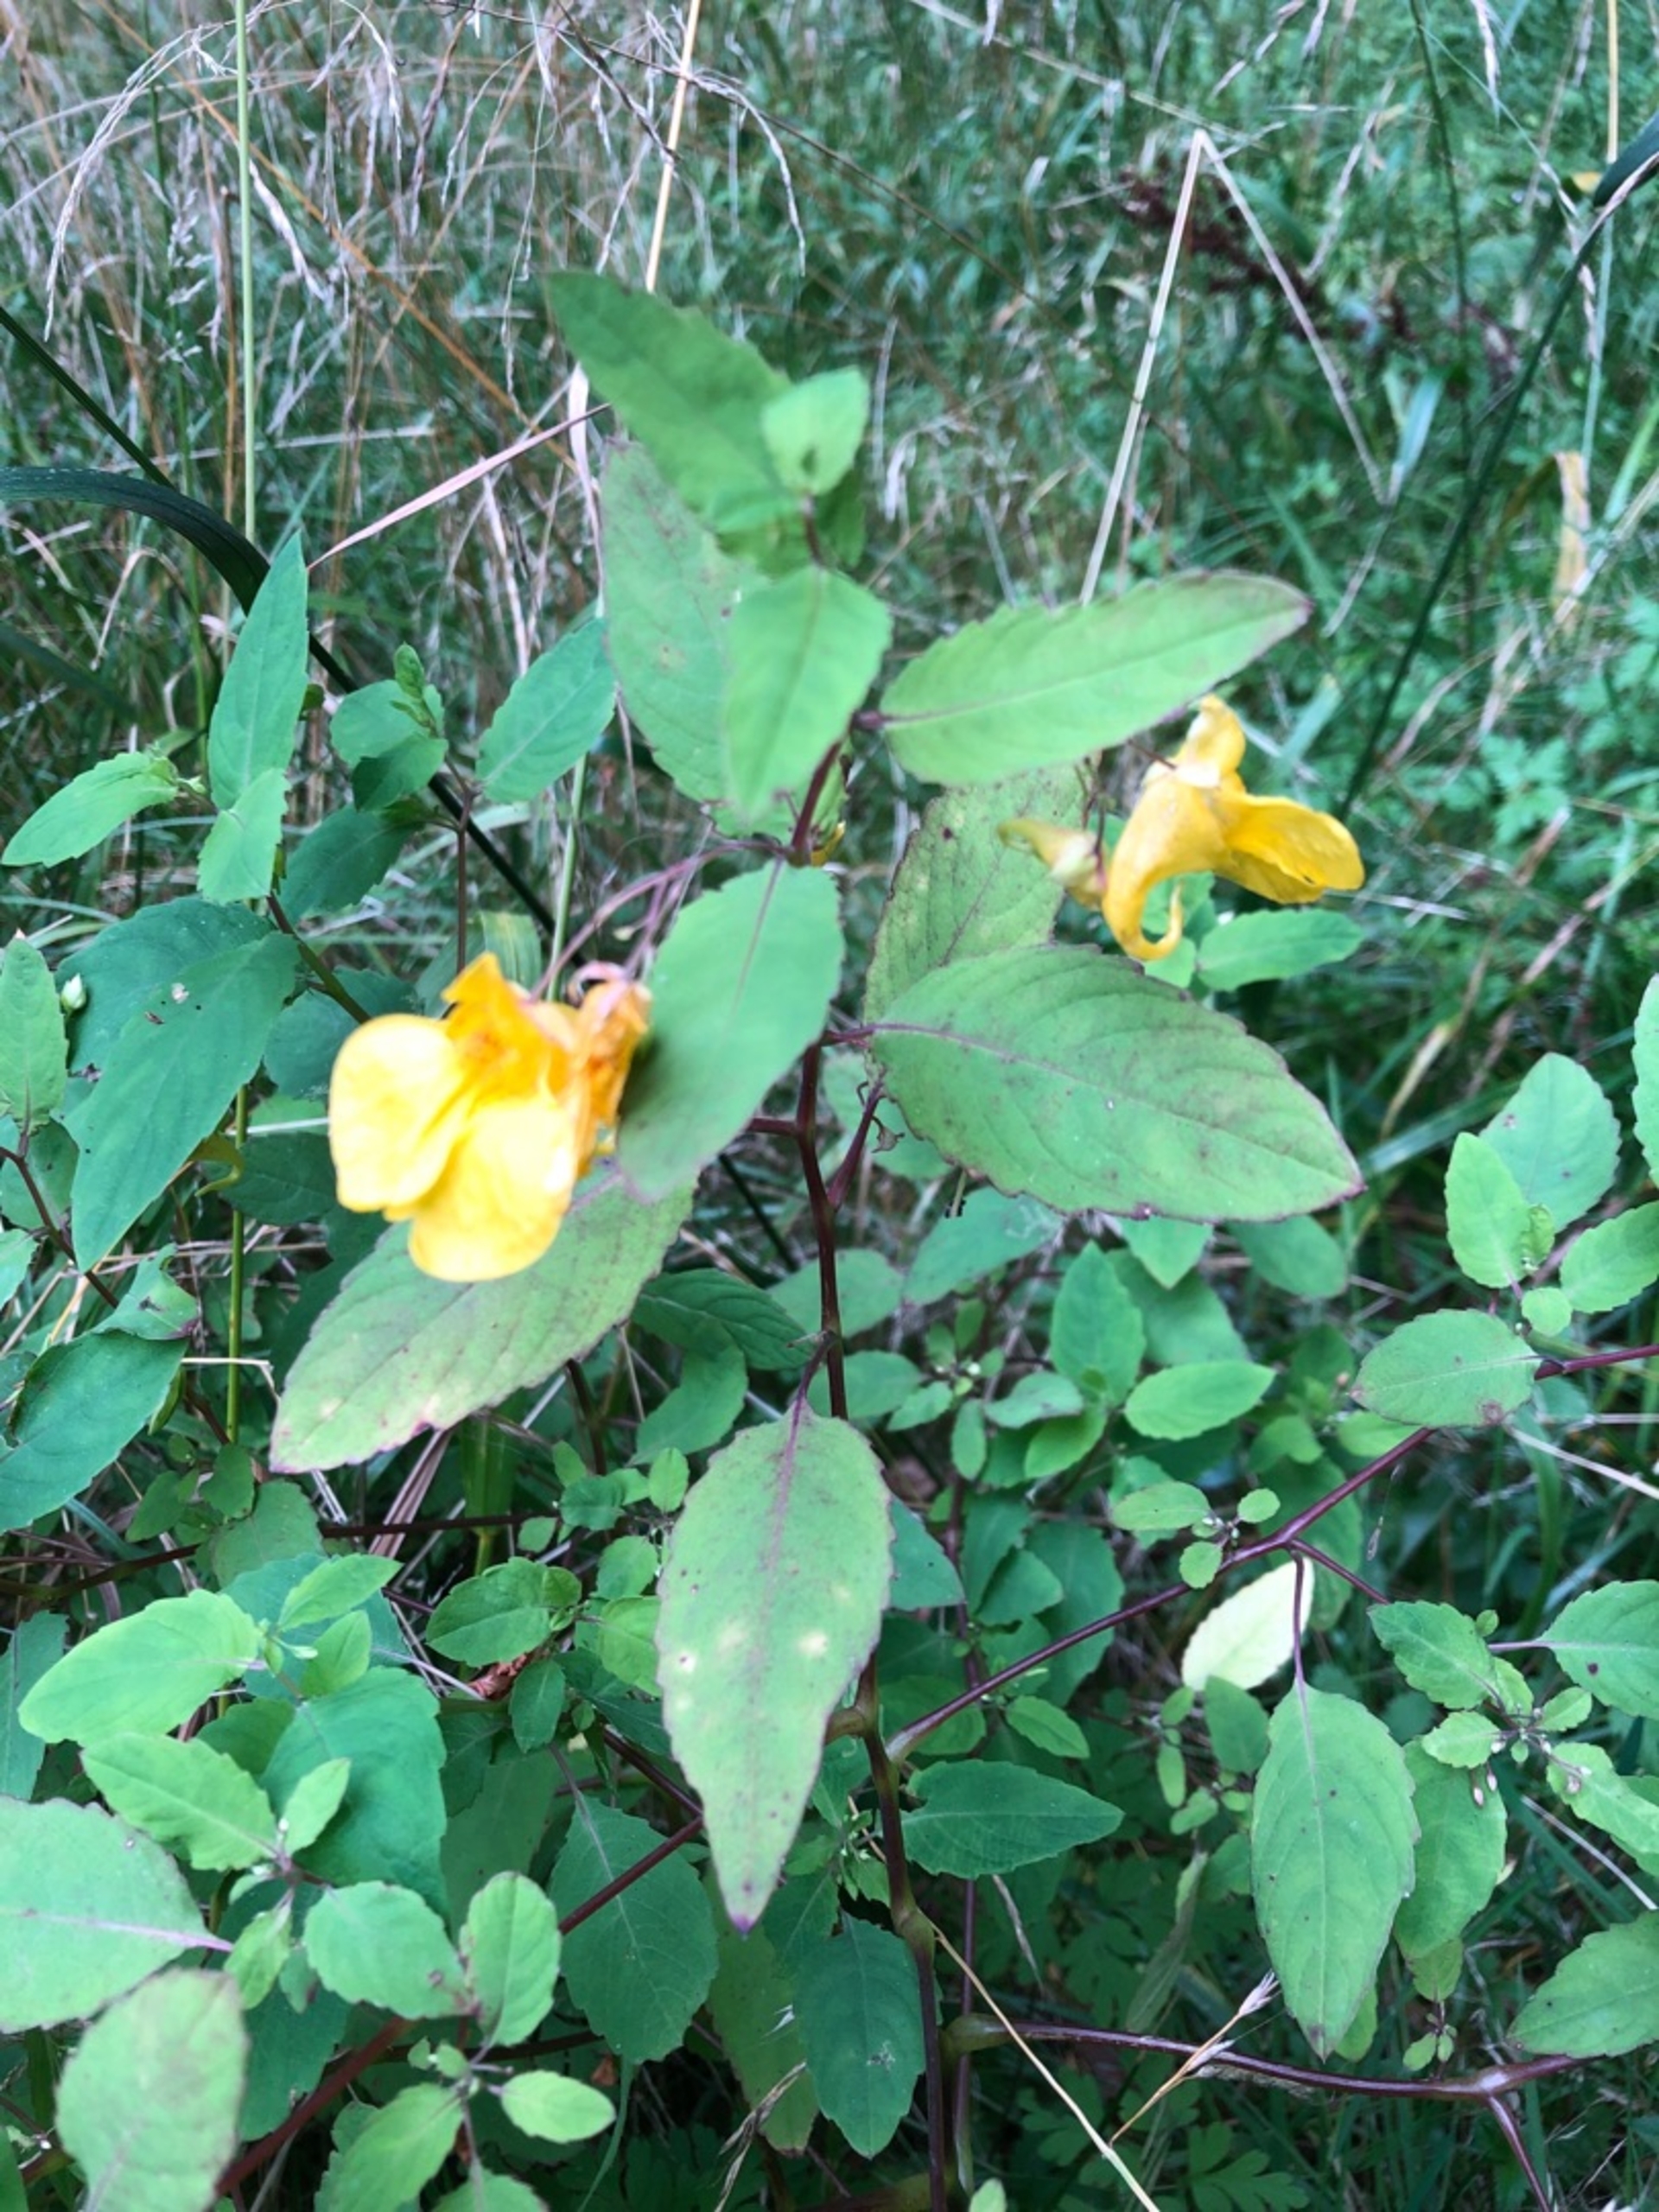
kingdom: Plantae
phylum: Tracheophyta
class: Magnoliopsida
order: Ericales
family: Balsaminaceae
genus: Impatiens
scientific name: Impatiens noli-tangere
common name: Spring-balsamin
